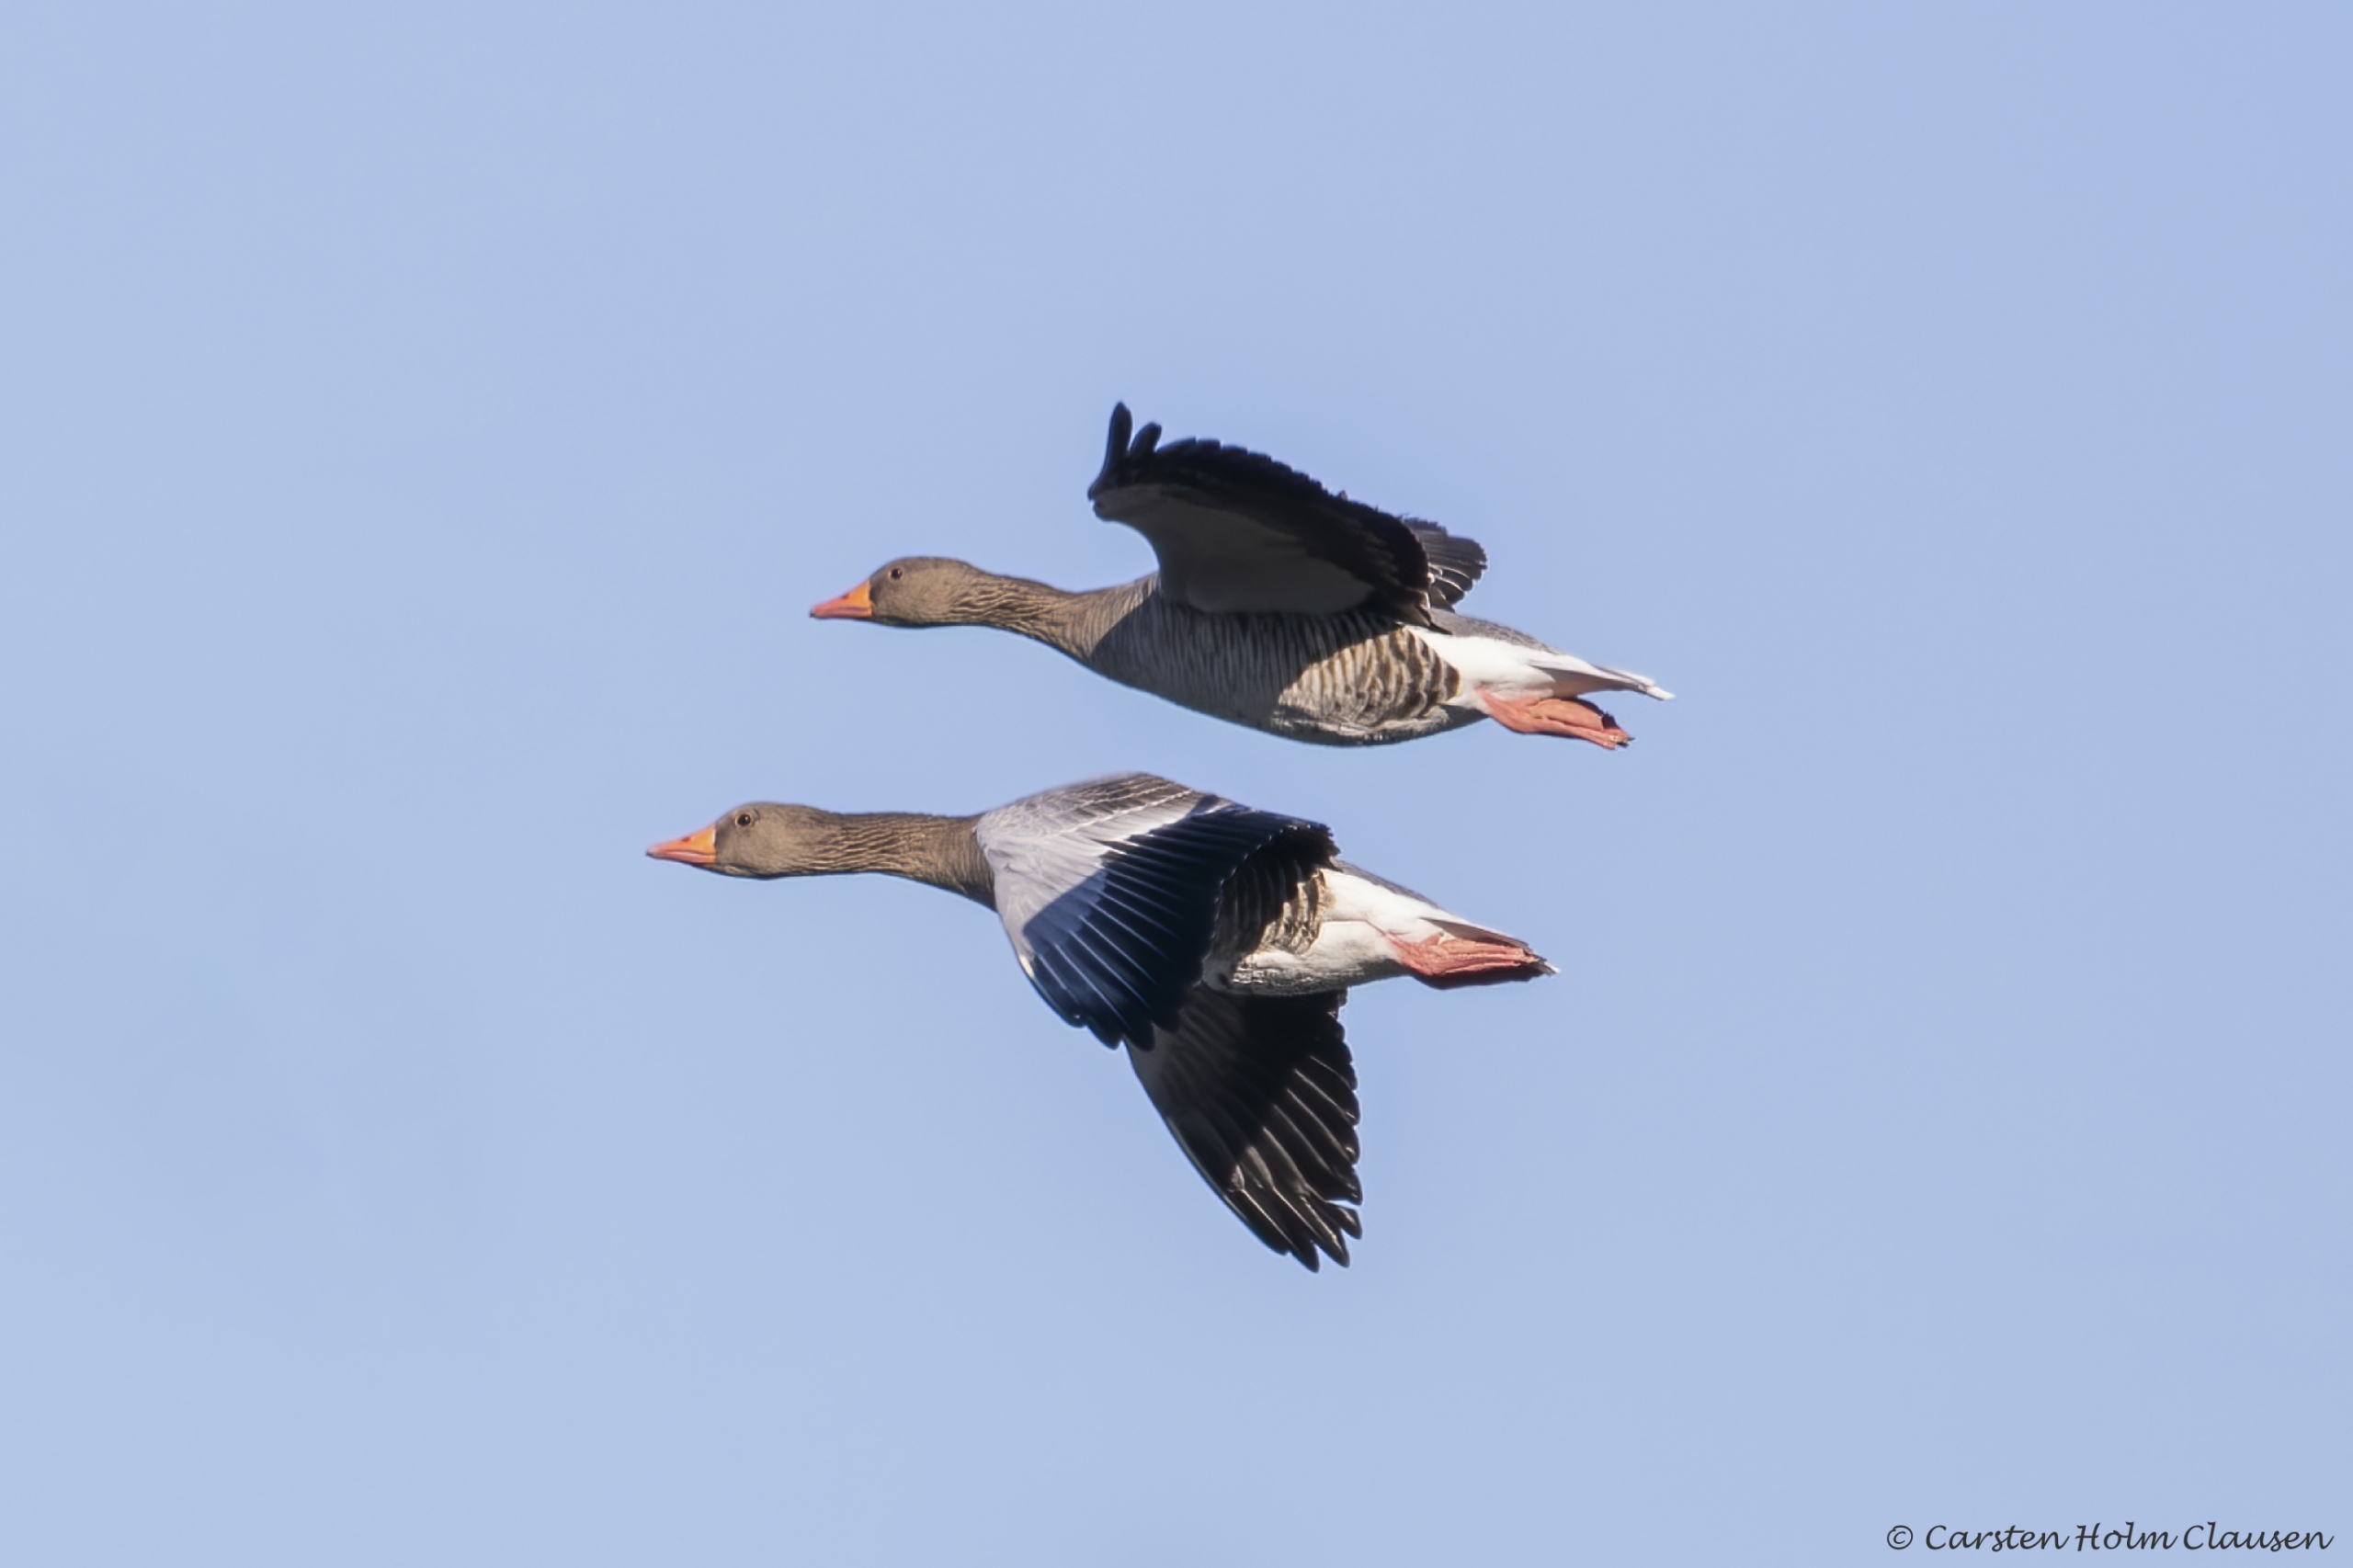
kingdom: Animalia
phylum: Chordata
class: Aves
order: Anseriformes
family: Anatidae
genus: Anser
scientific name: Anser anser
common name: Grågås
